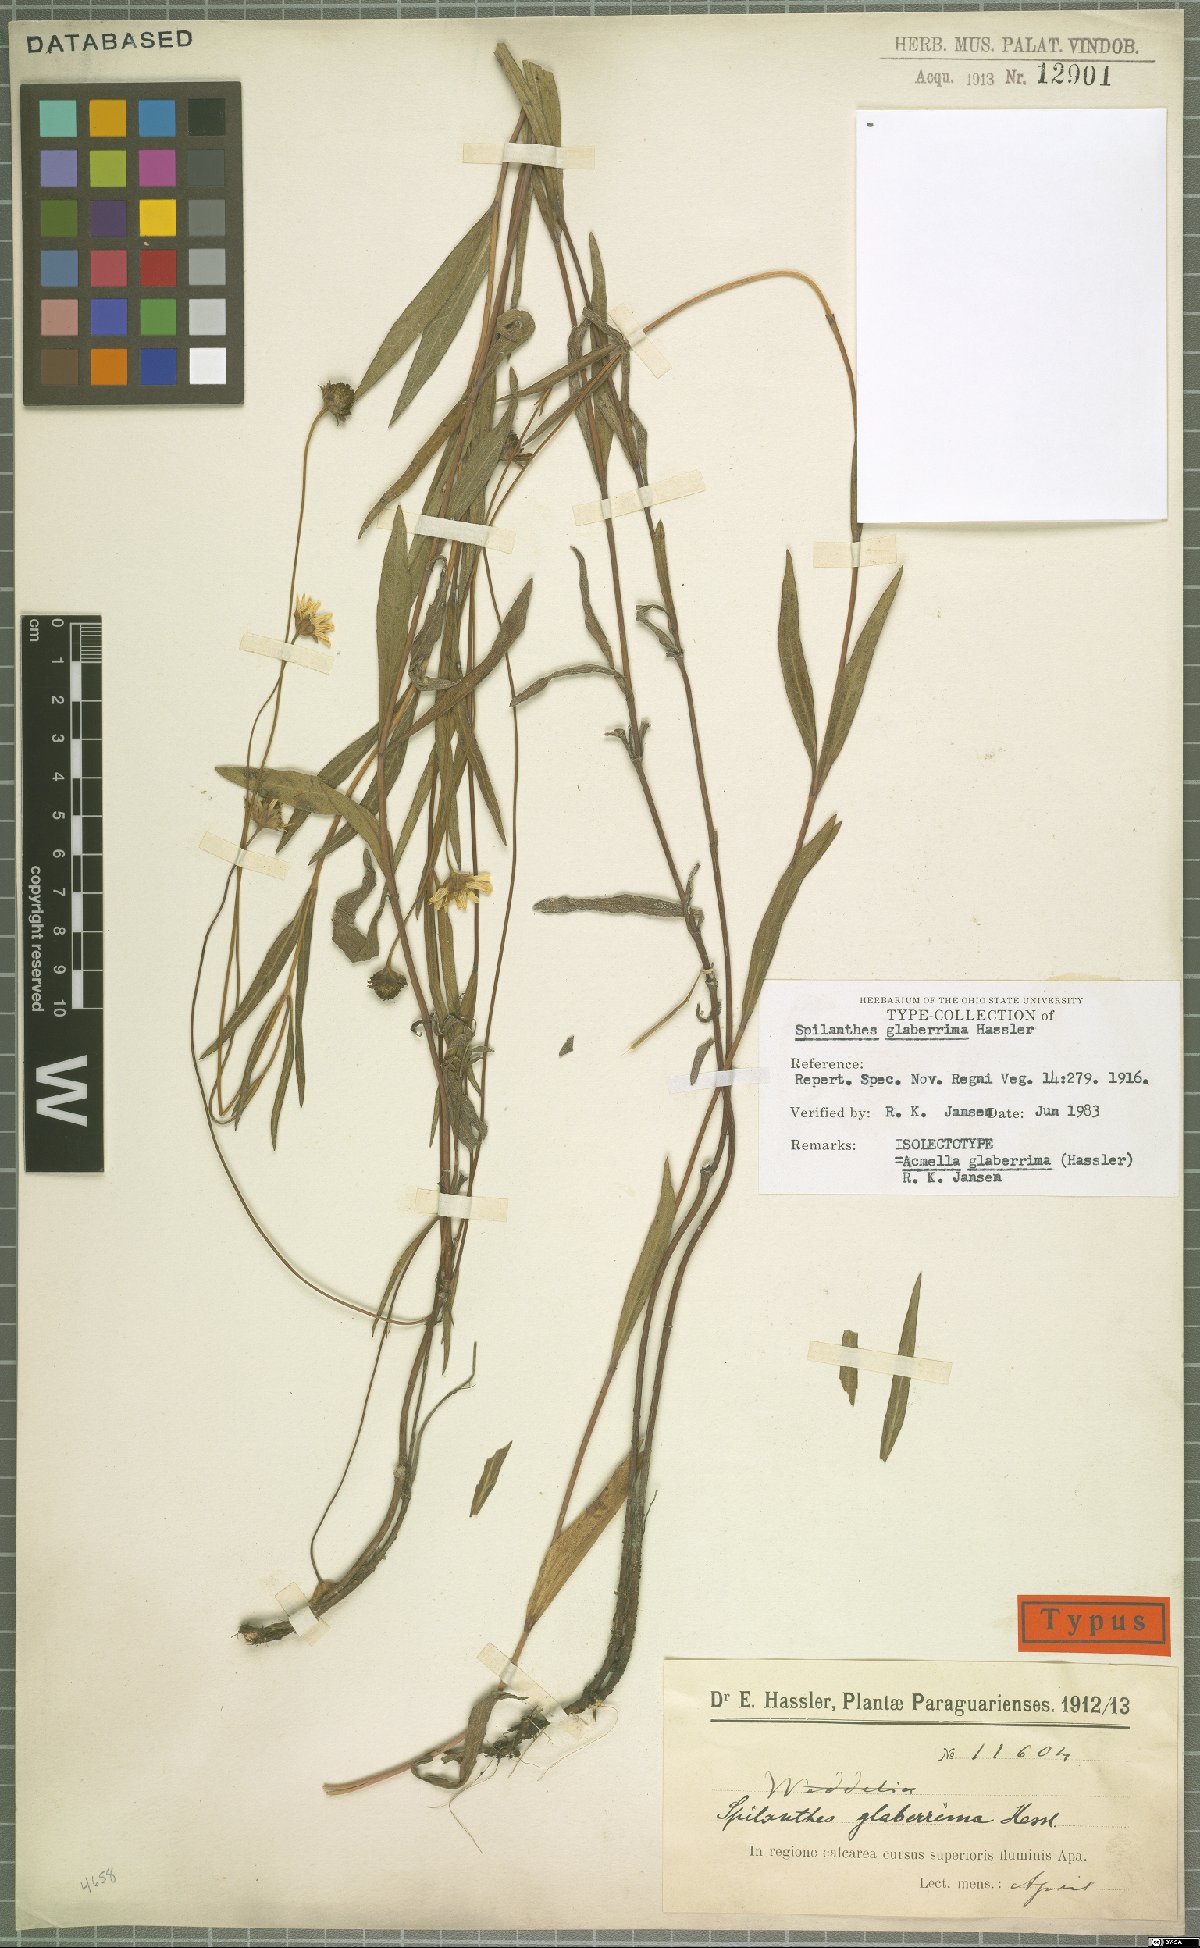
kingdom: Plantae
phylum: Tracheophyta
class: Magnoliopsida
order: Asterales
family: Asteraceae
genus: Acmella
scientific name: Acmella glaberrima
